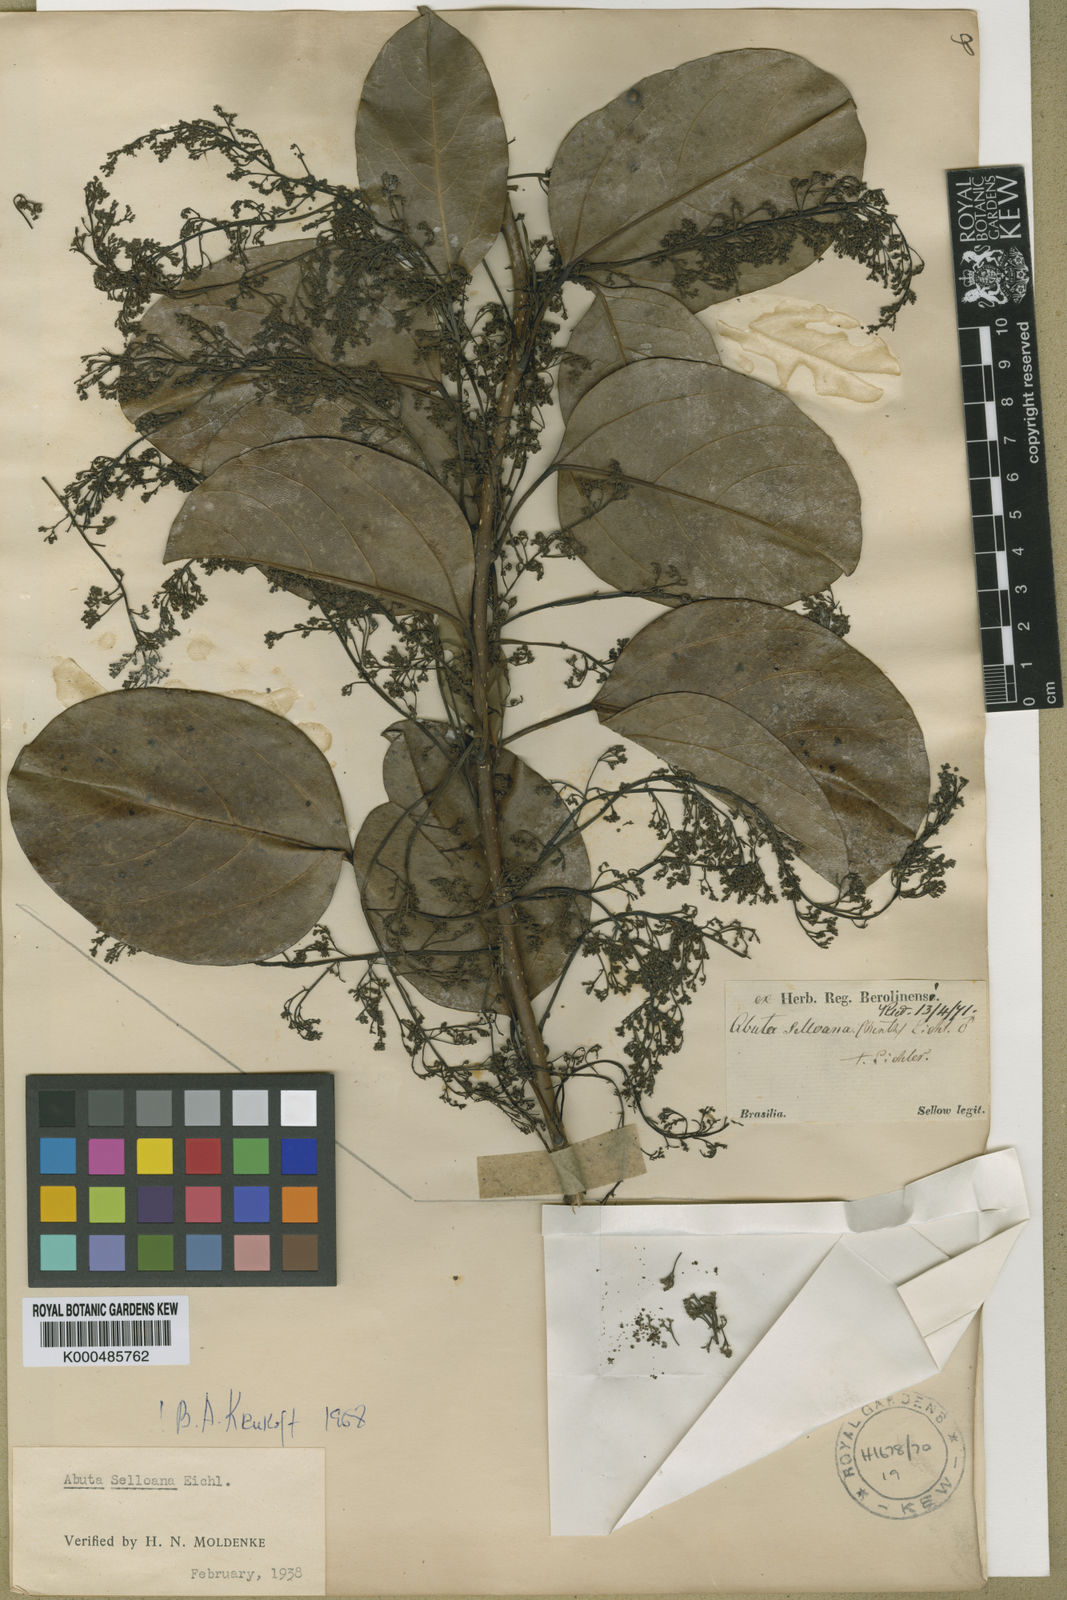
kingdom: Plantae
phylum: Tracheophyta
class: Magnoliopsida
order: Ranunculales
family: Menispermaceae
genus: Abuta
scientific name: Abuta selloana
